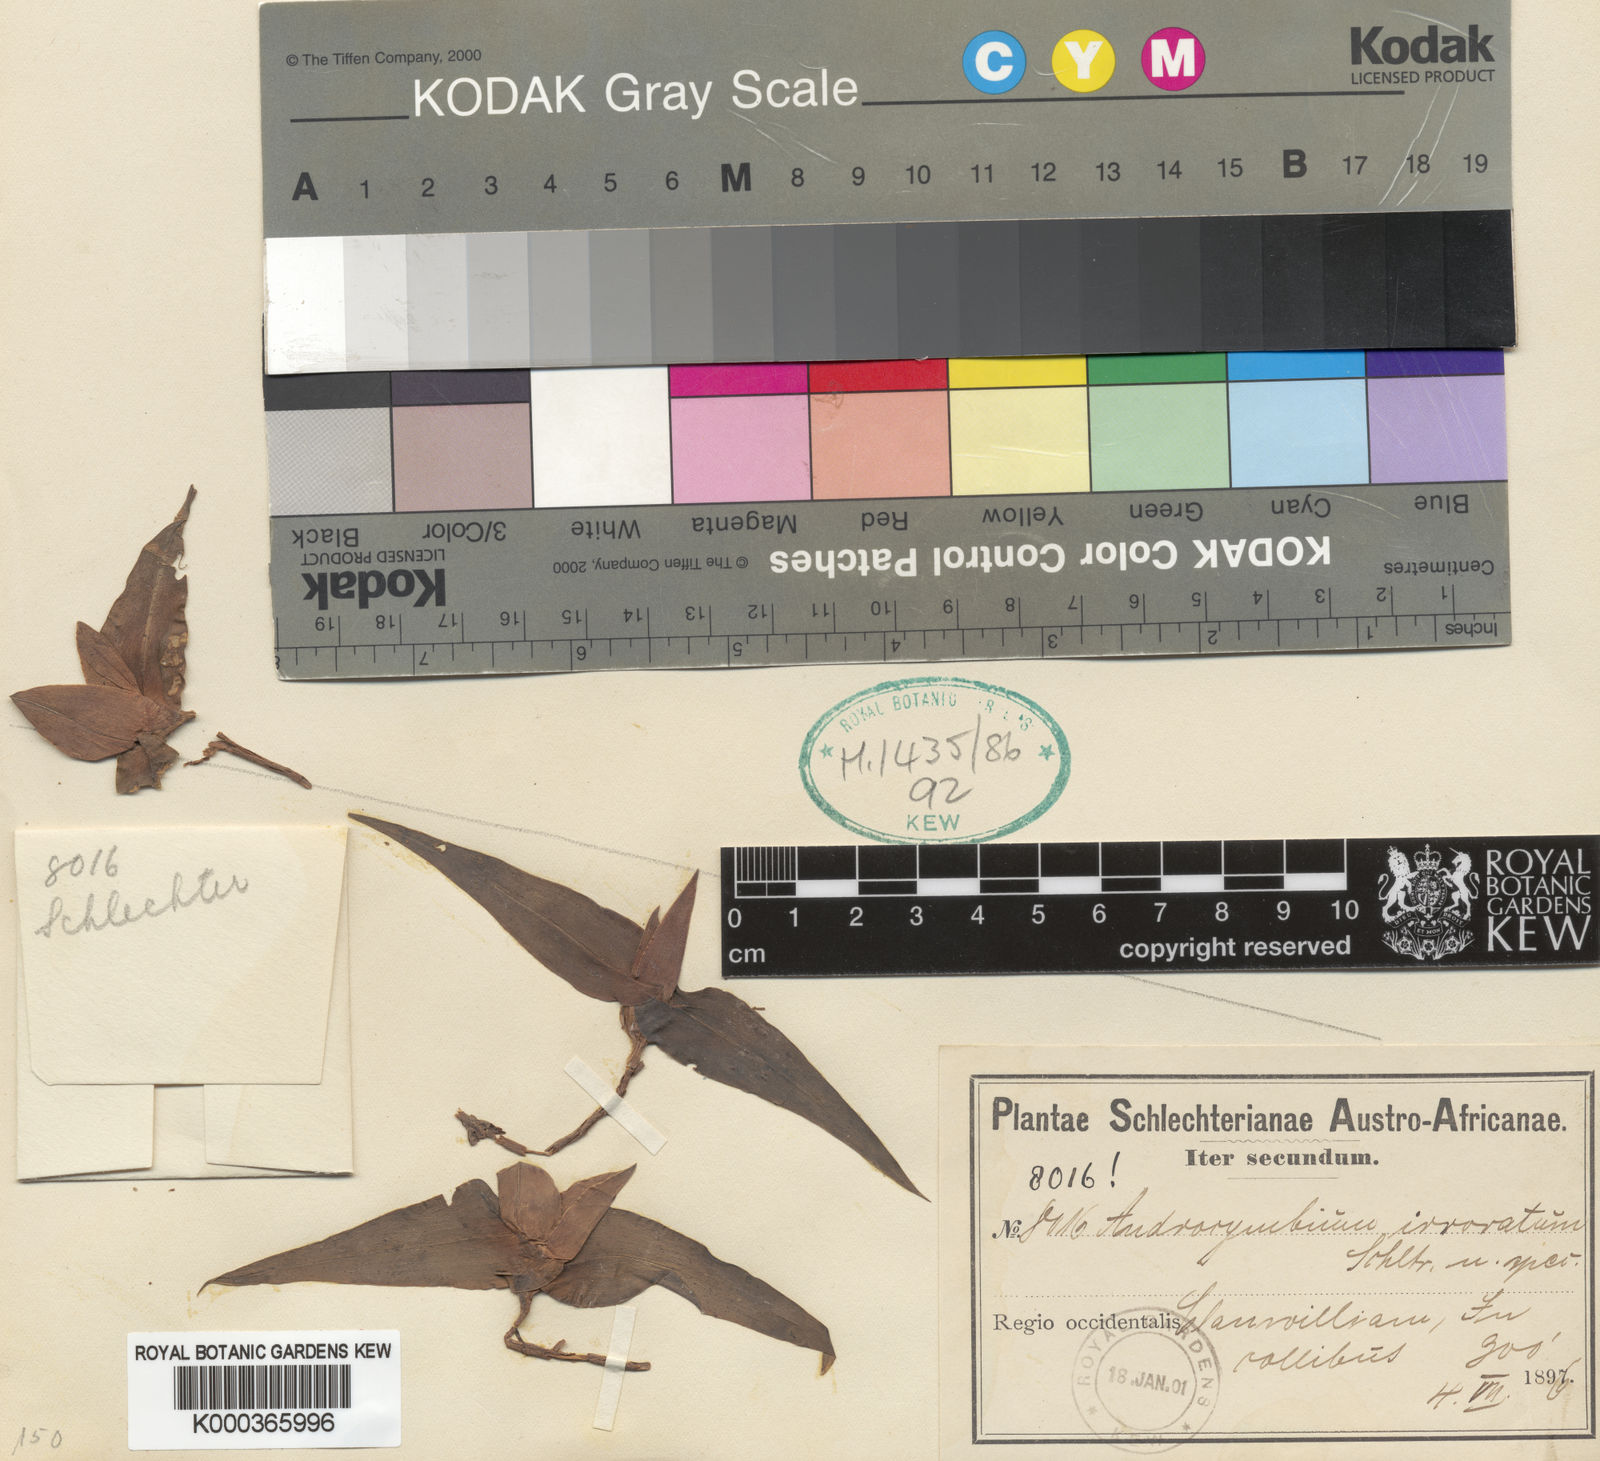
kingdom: Plantae
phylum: Tracheophyta
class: Liliopsida
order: Liliales
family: Colchicaceae
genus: Colchicum
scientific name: Colchicum irroratum
